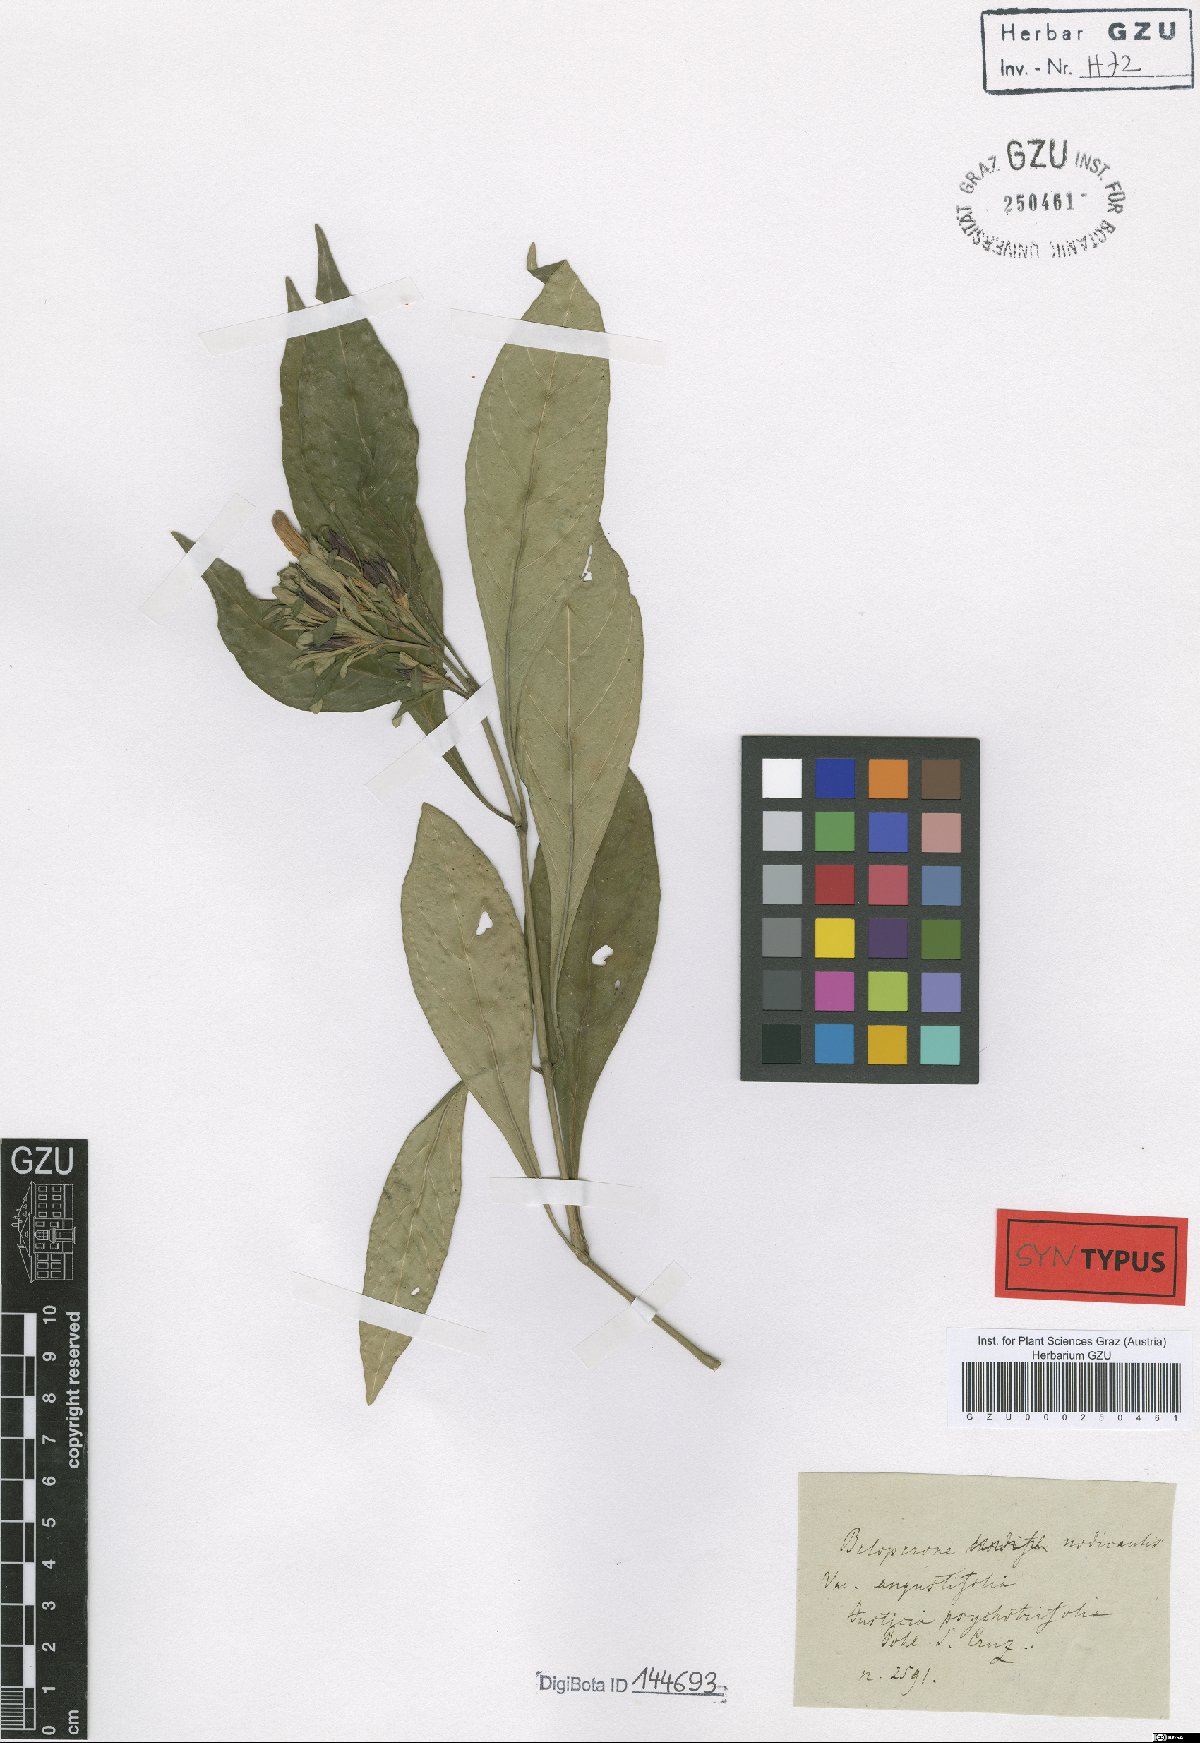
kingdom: Plantae
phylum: Tracheophyta
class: Magnoliopsida
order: Lamiales
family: Acanthaceae
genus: Justicia
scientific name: Justicia nodicaulis
